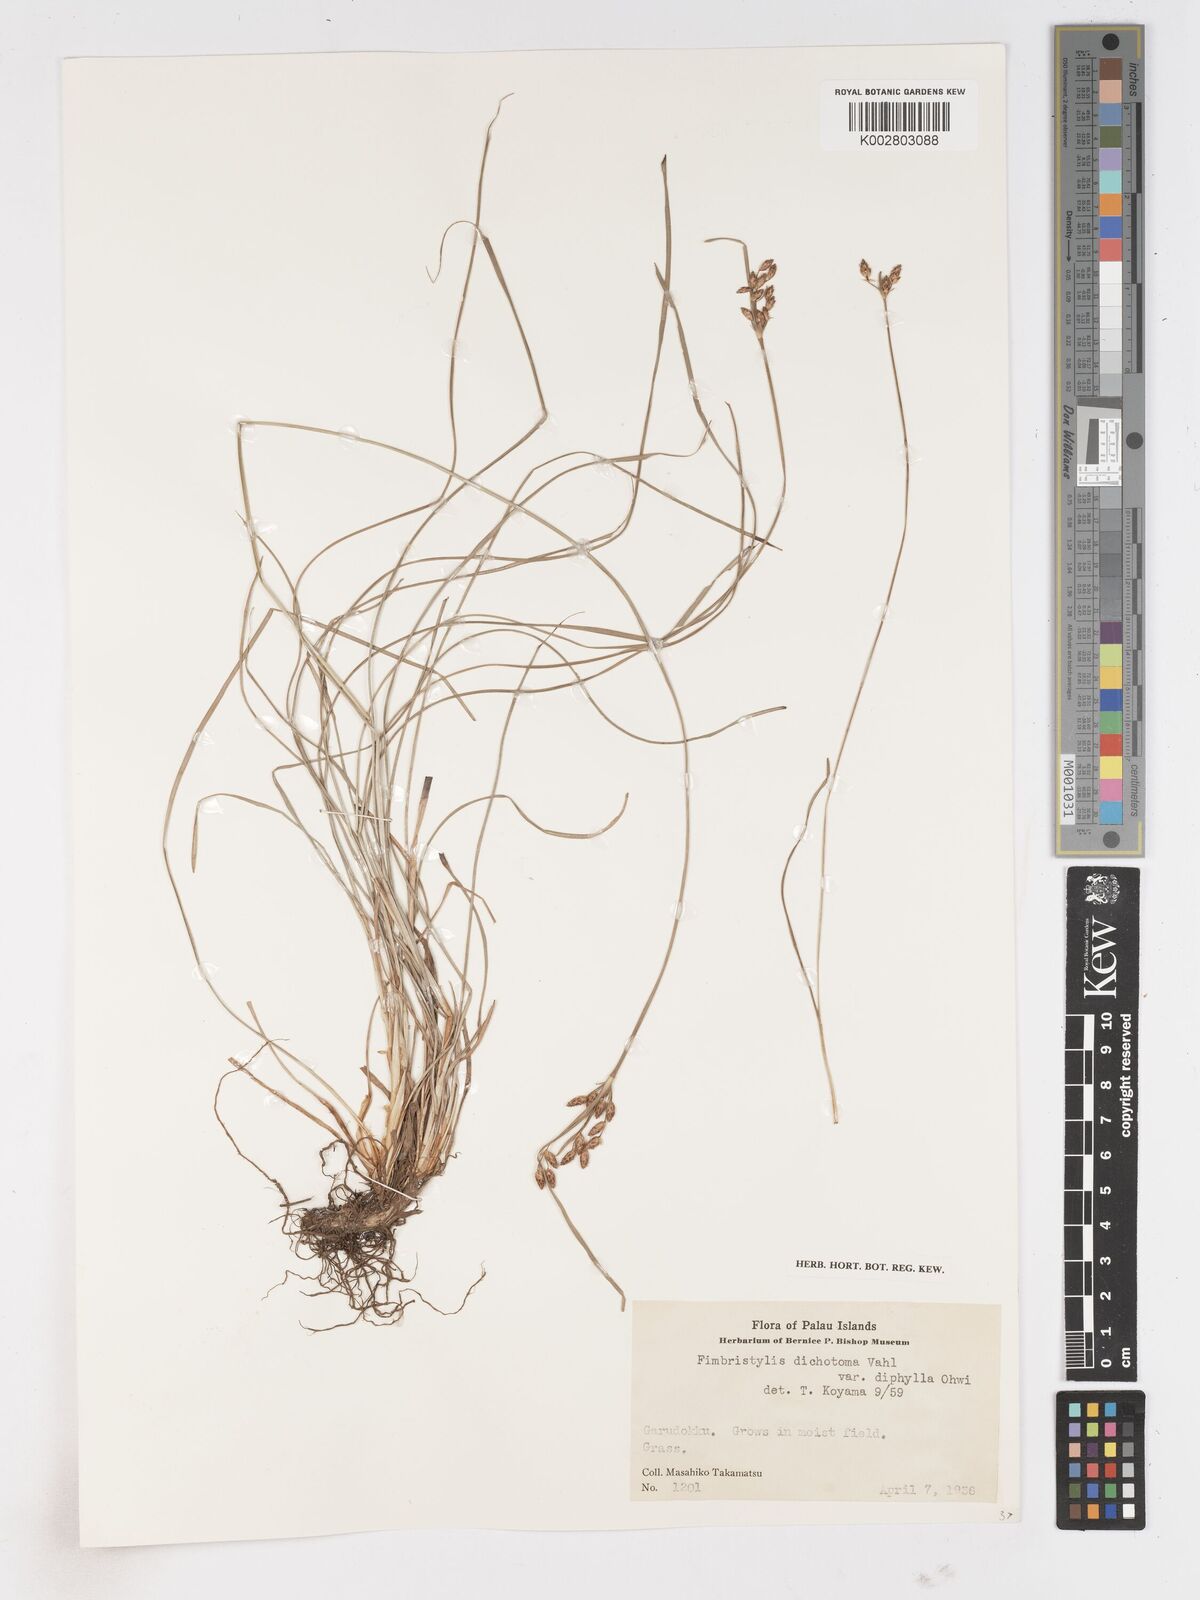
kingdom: Plantae
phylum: Tracheophyta
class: Liliopsida
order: Poales
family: Cyperaceae
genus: Fimbristylis
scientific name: Fimbristylis dichotoma
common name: Forked fimbry
